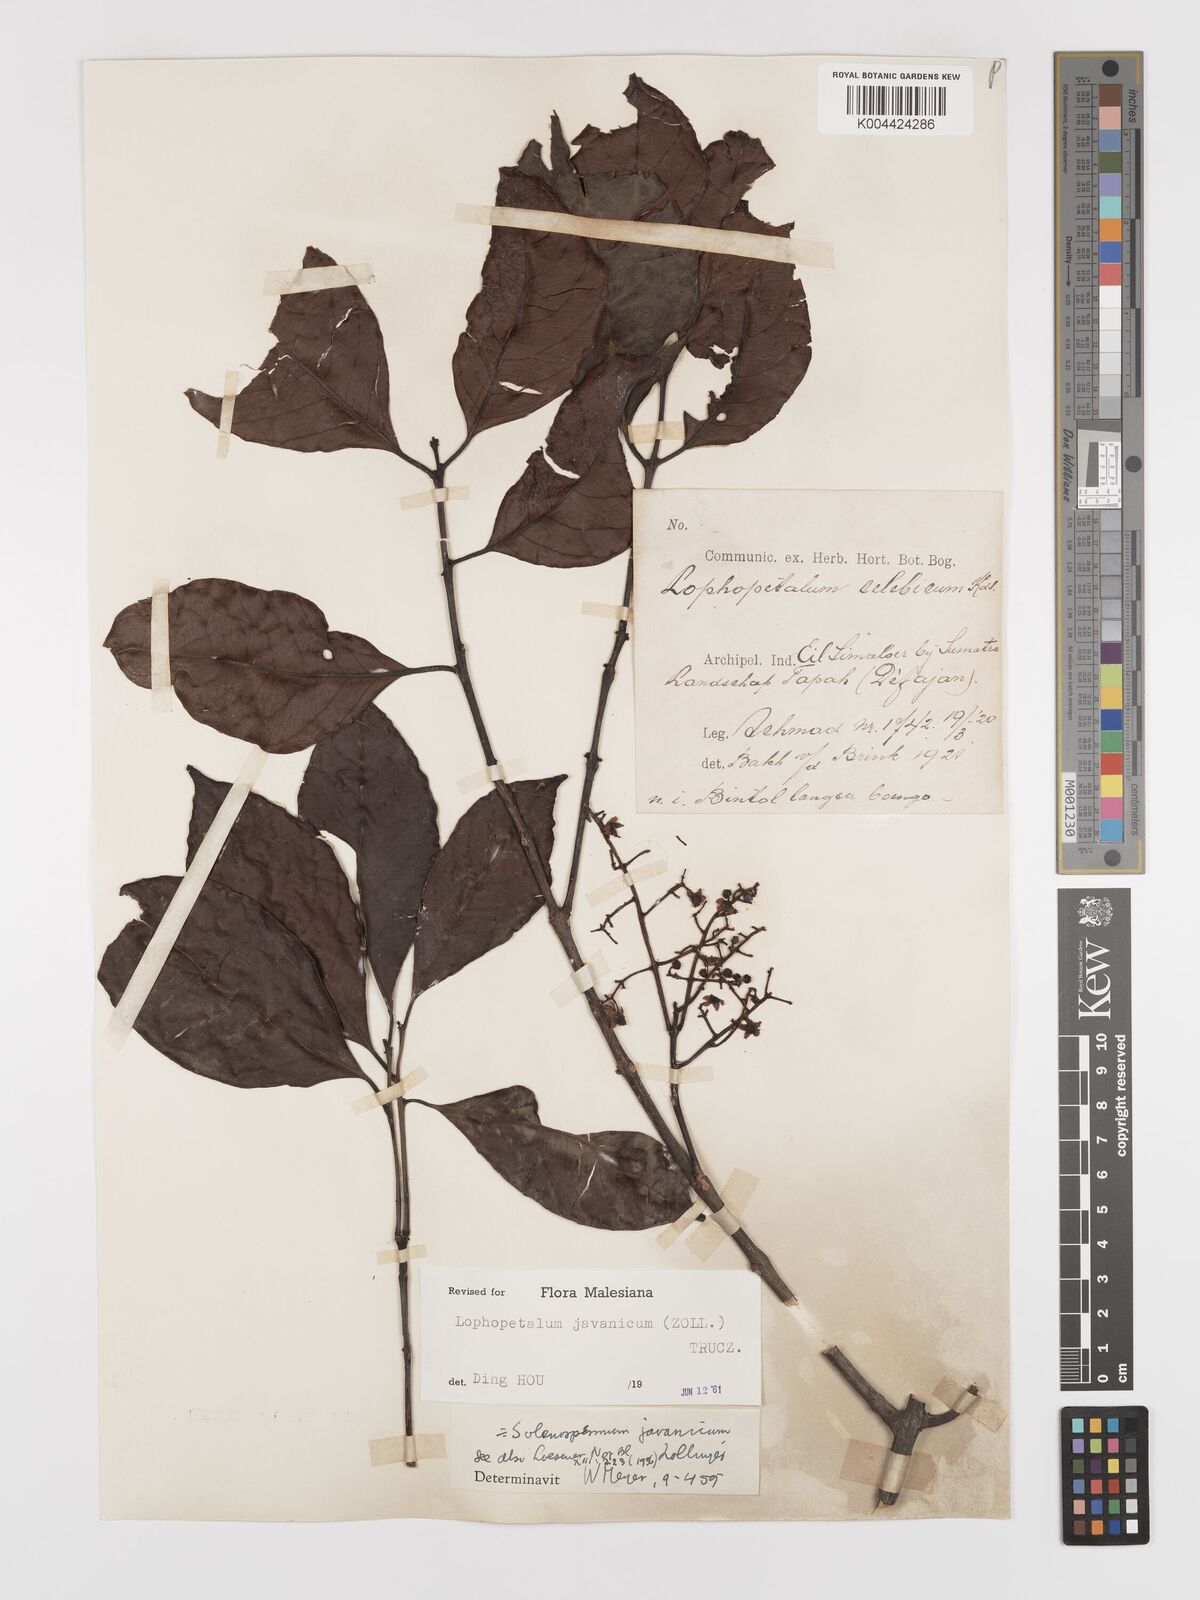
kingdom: Plantae
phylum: Tracheophyta
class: Magnoliopsida
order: Celastrales
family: Celastraceae
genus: Lophopetalum
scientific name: Lophopetalum javanicum
